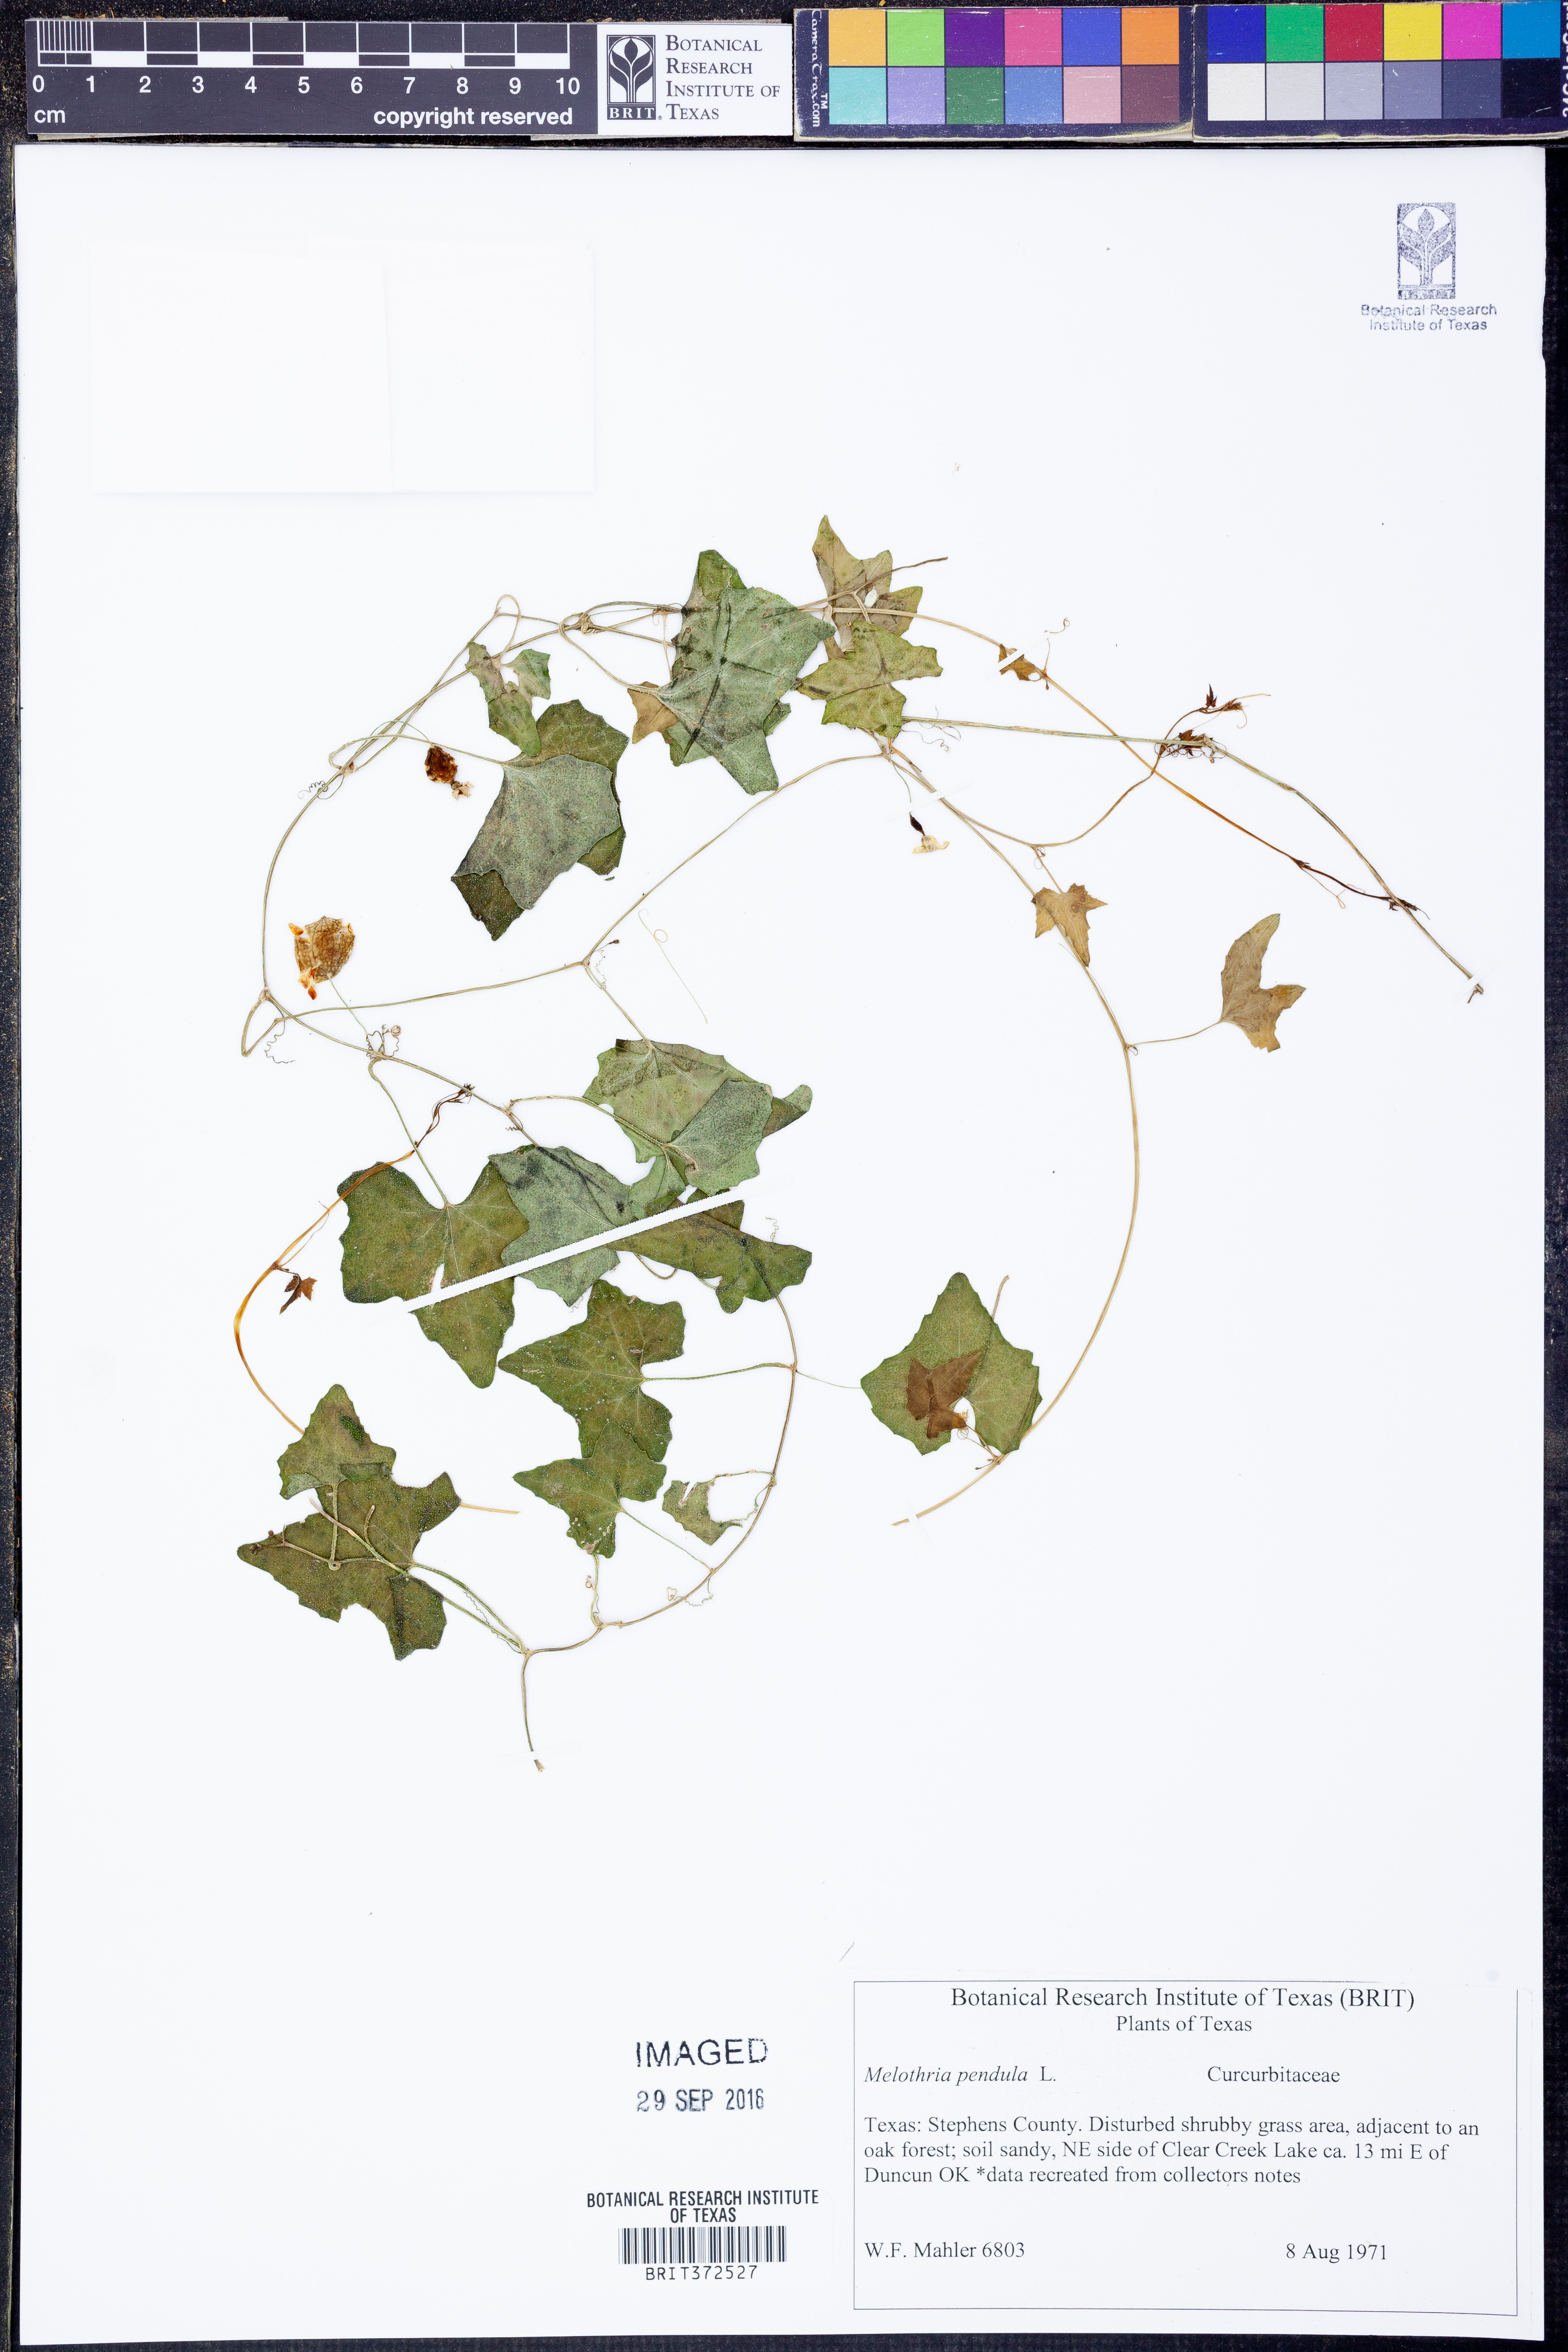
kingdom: Plantae
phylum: Tracheophyta
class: Magnoliopsida
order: Cucurbitales
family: Cucurbitaceae
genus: Melothria
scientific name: Melothria pendula
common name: Creeping-cucumber
